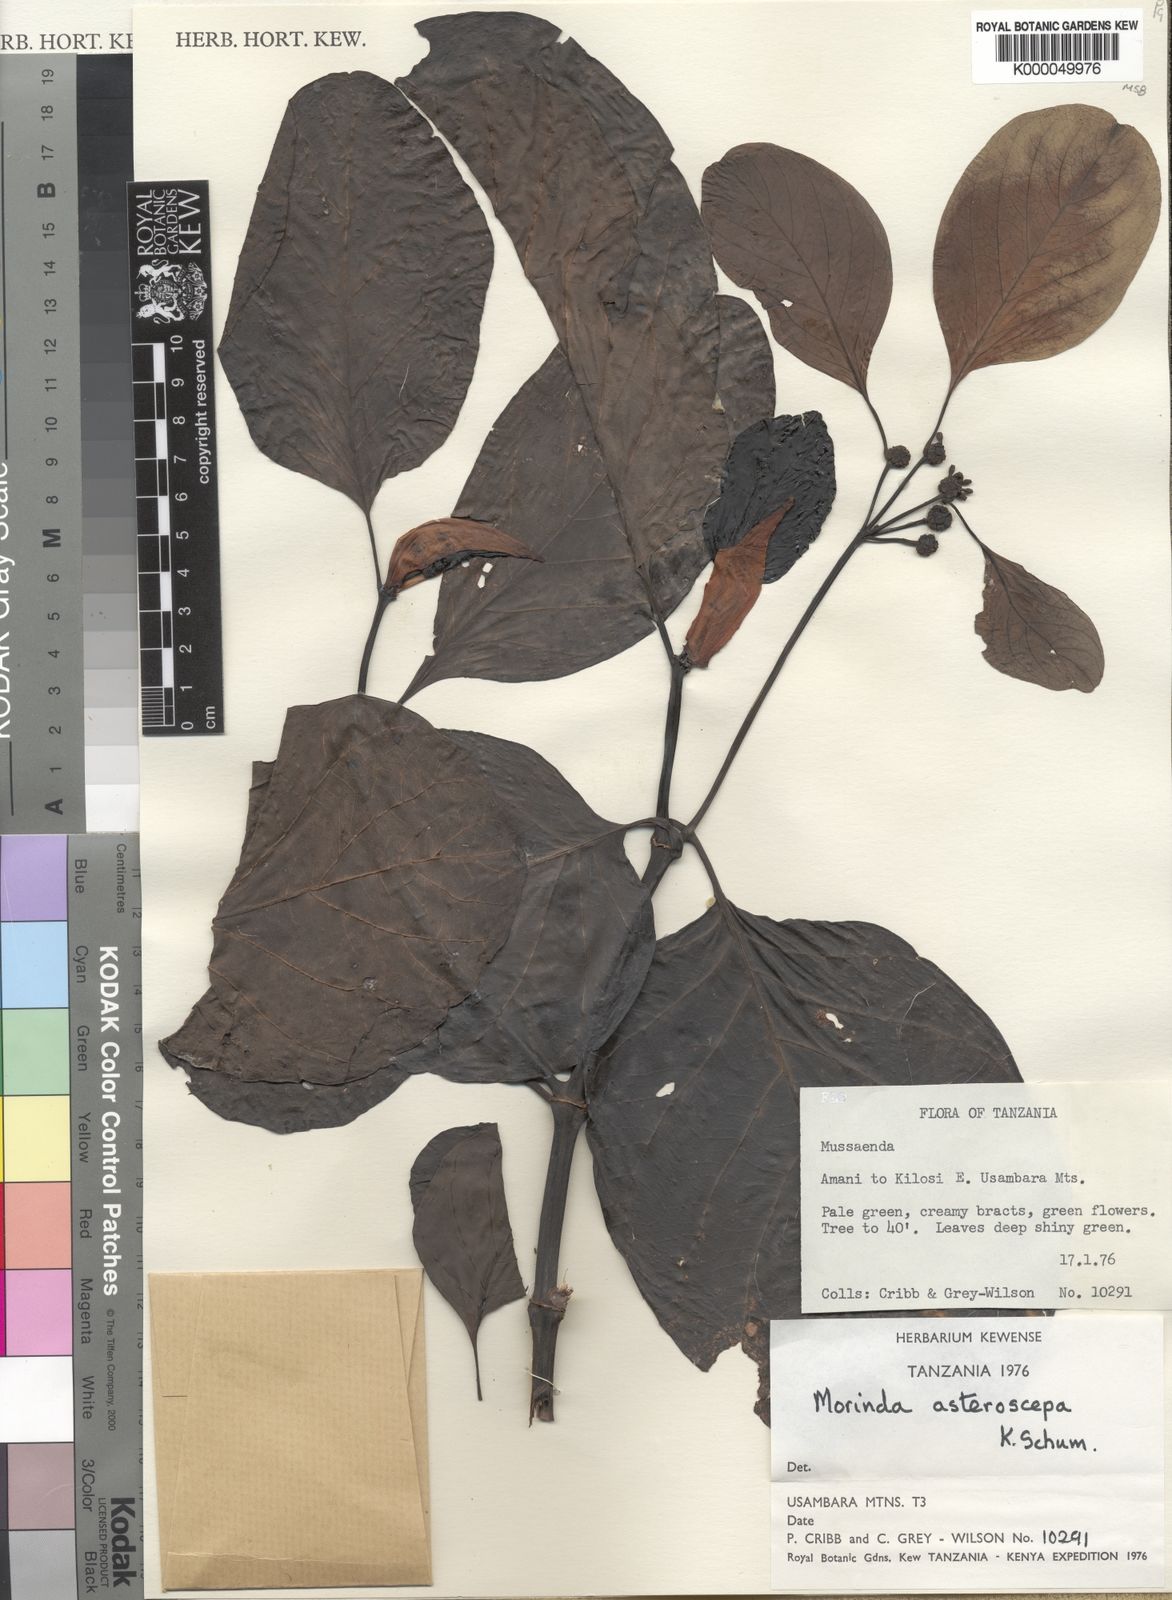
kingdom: Plantae
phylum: Tracheophyta
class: Magnoliopsida
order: Gentianales
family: Rubiaceae
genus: Morinda
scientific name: Morinda asteroscepa
